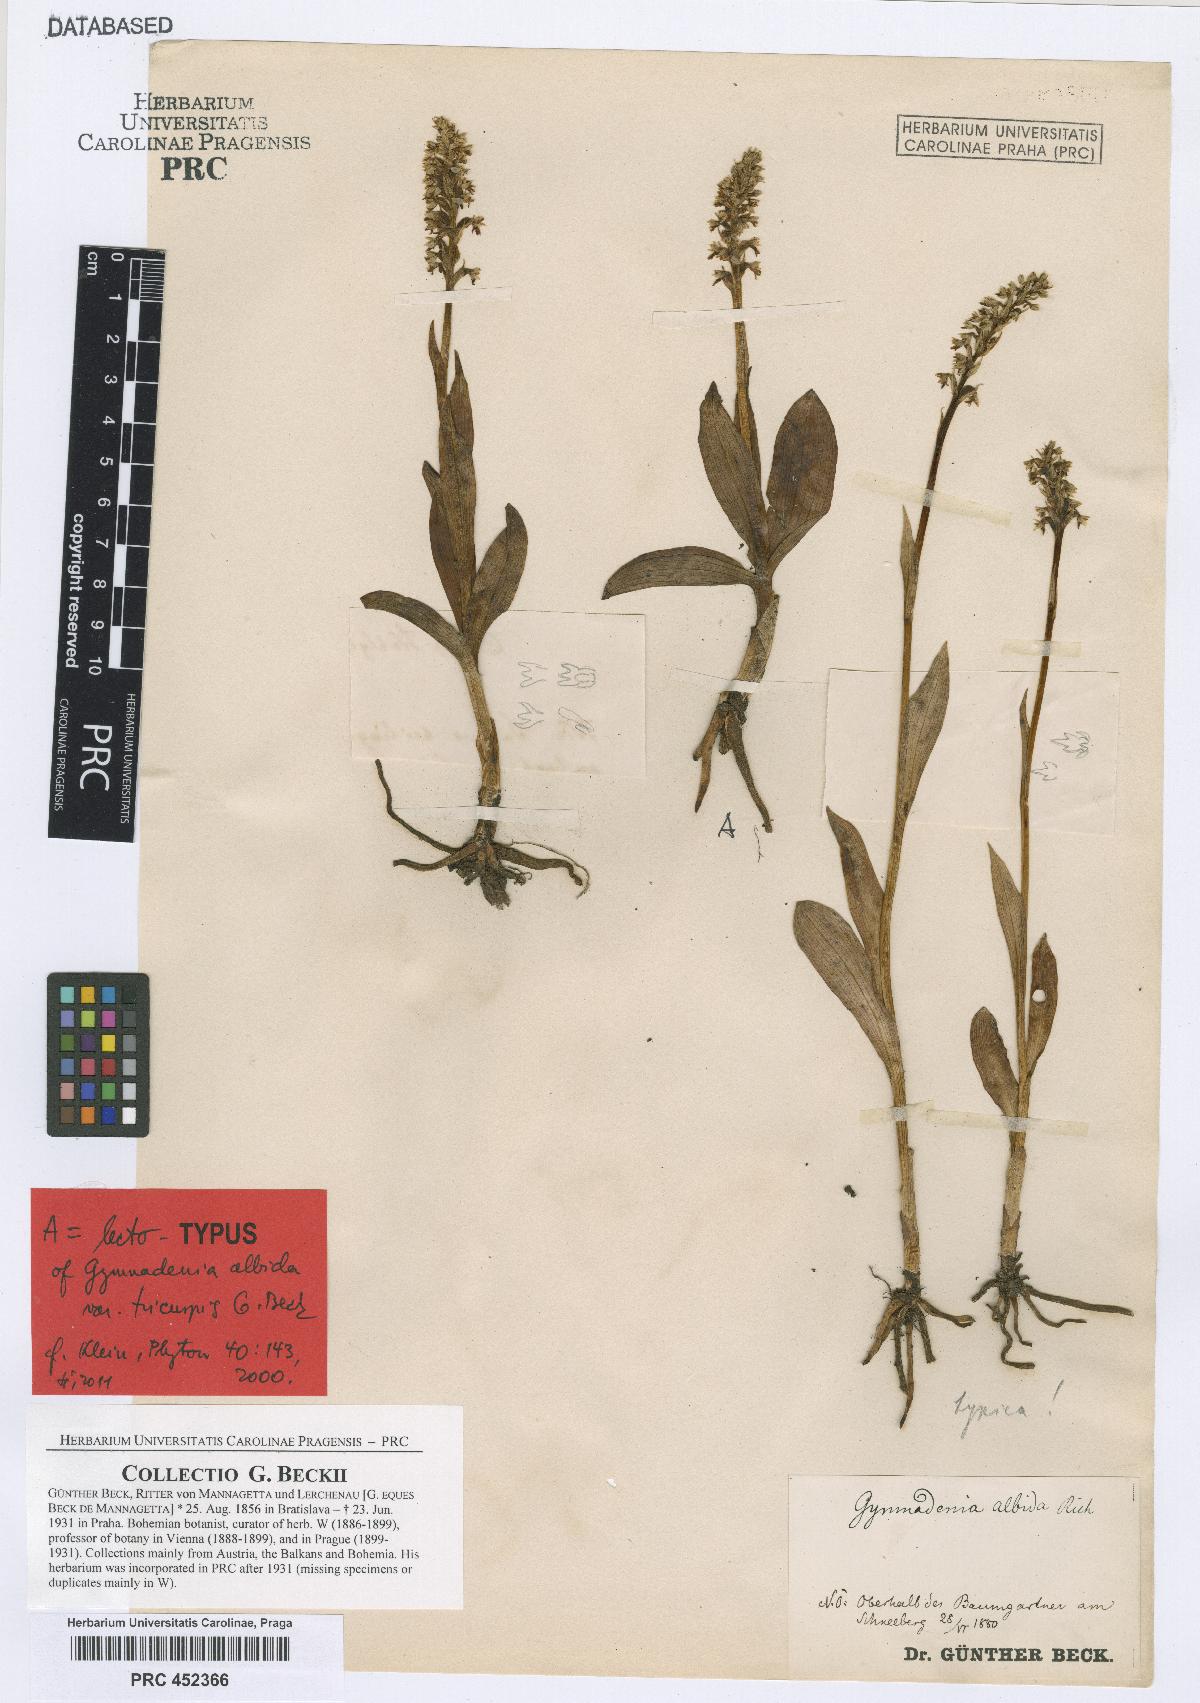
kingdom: Plantae
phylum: Tracheophyta
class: Liliopsida
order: Asparagales
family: Orchidaceae
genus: Pseudorchis
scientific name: Pseudorchis albida
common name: Small-white orchid
